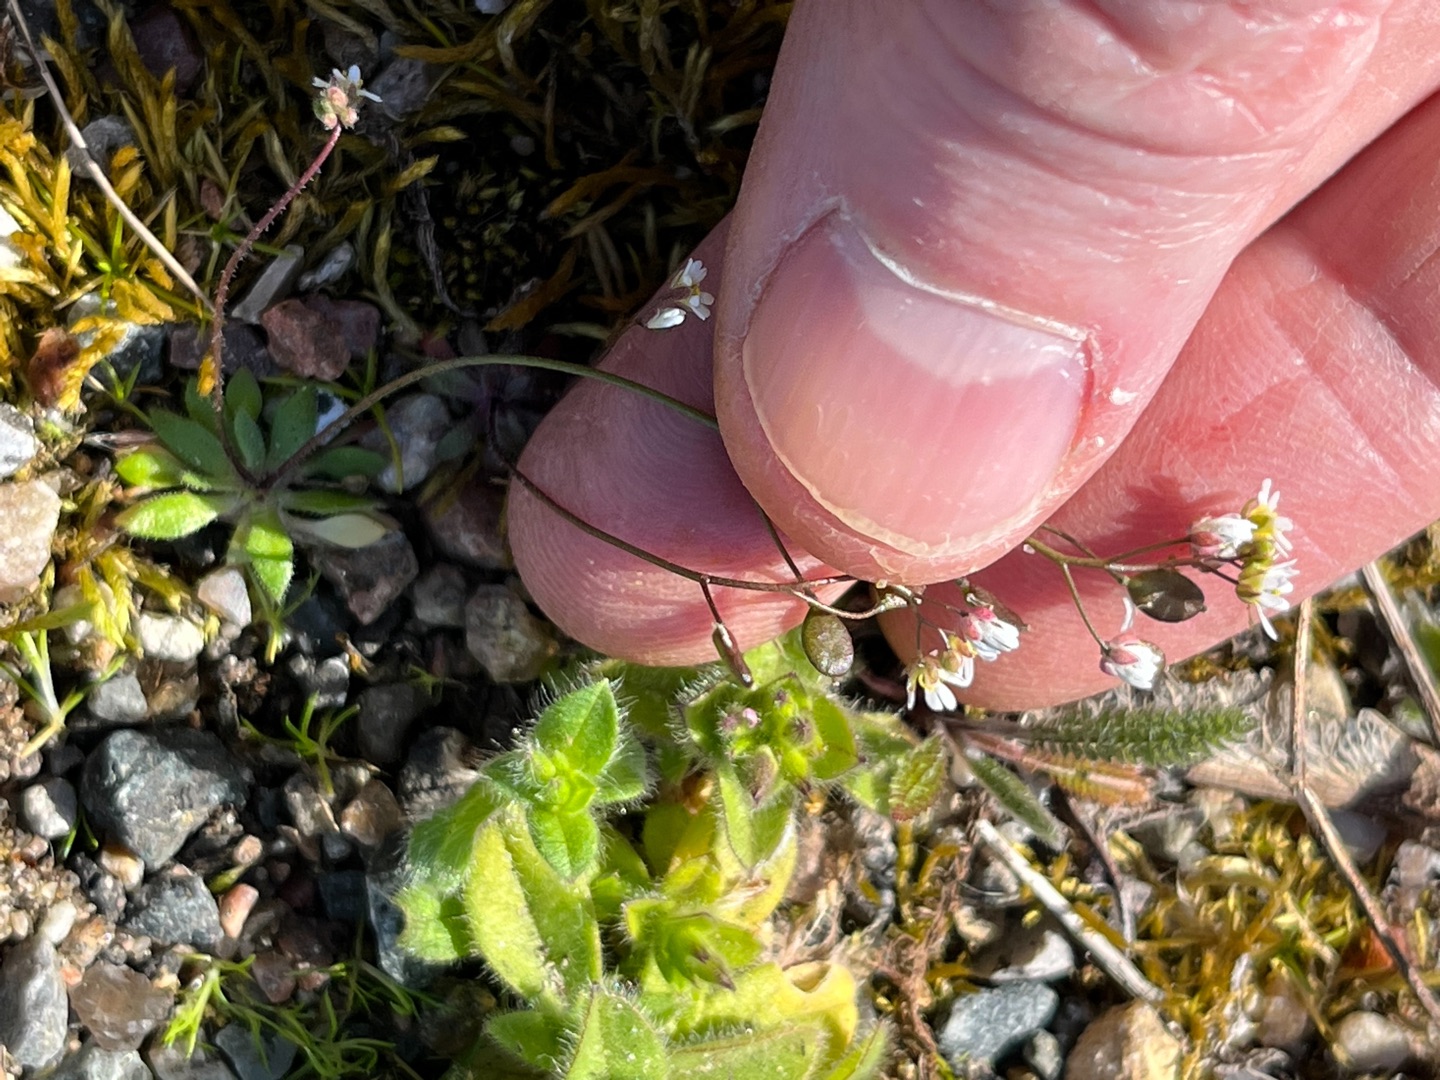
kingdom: Plantae
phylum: Tracheophyta
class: Magnoliopsida
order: Brassicales
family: Brassicaceae
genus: Draba
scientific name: Draba verna
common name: Vår-gæslingeblomst
